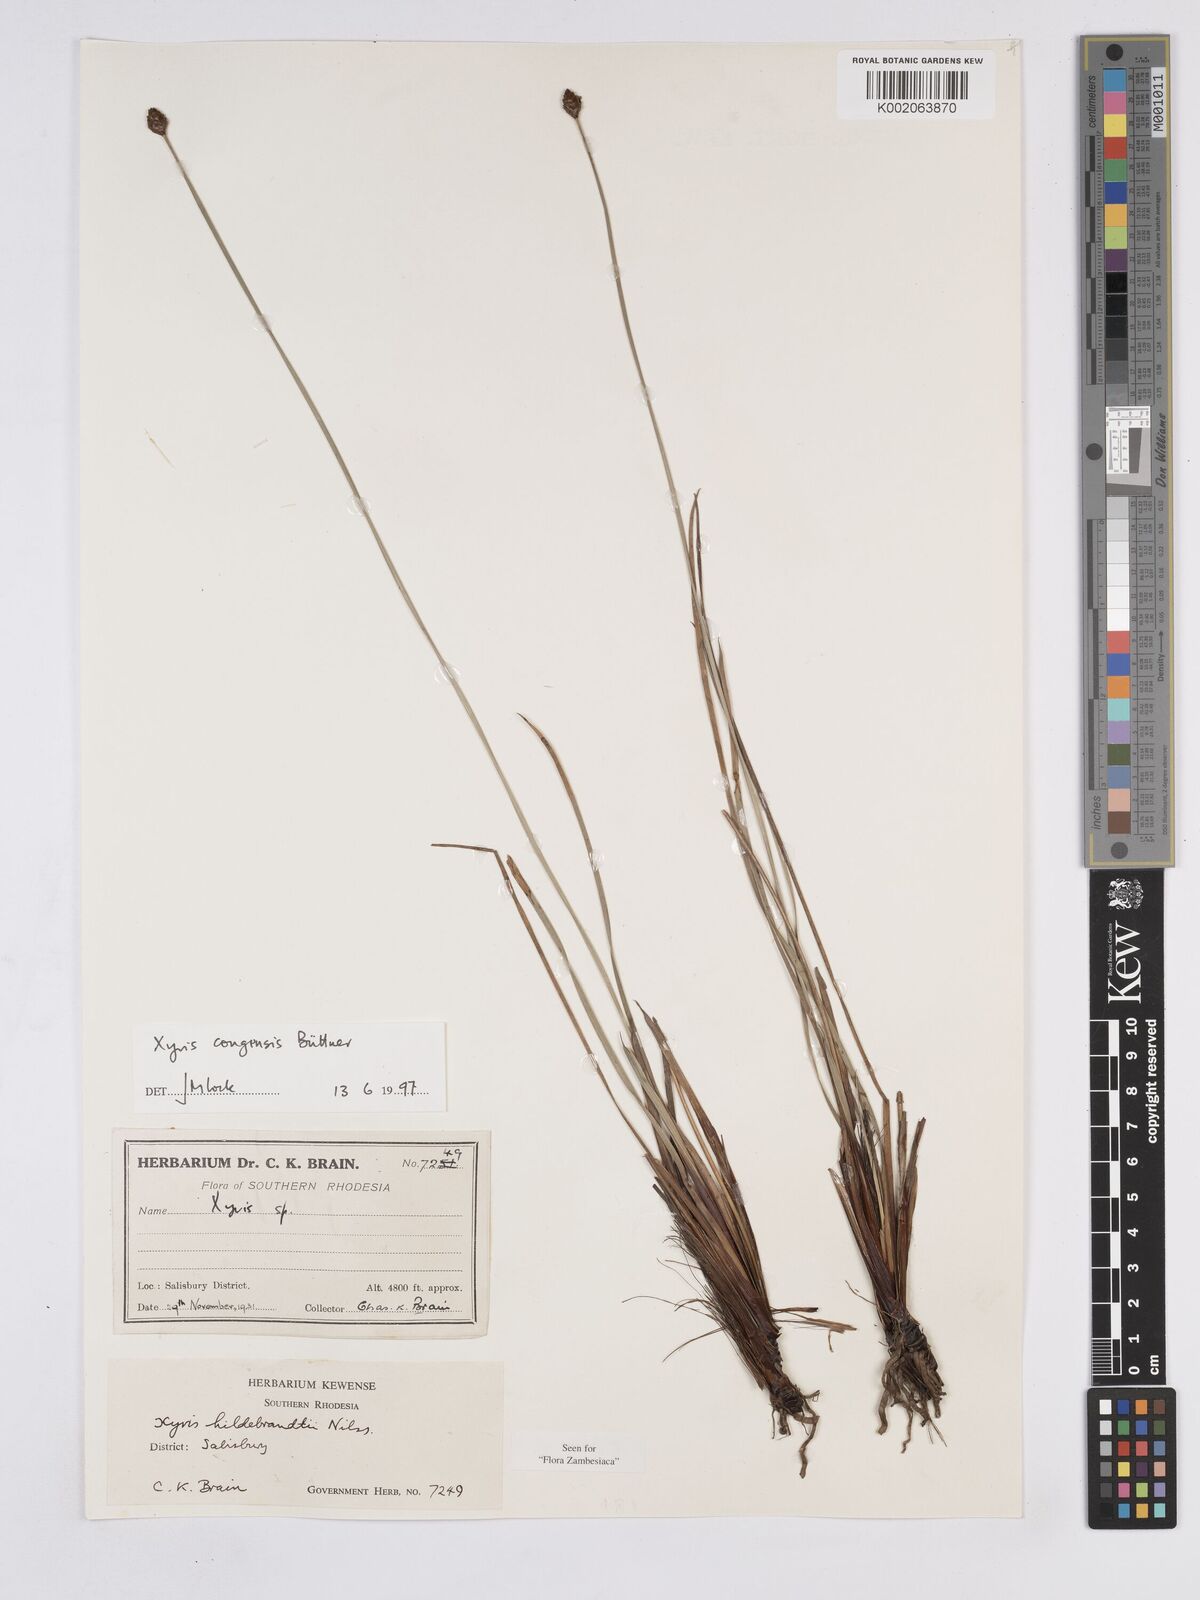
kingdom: Plantae
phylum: Tracheophyta
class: Liliopsida
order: Poales
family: Xyridaceae
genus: Xyris
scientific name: Xyris congensis
